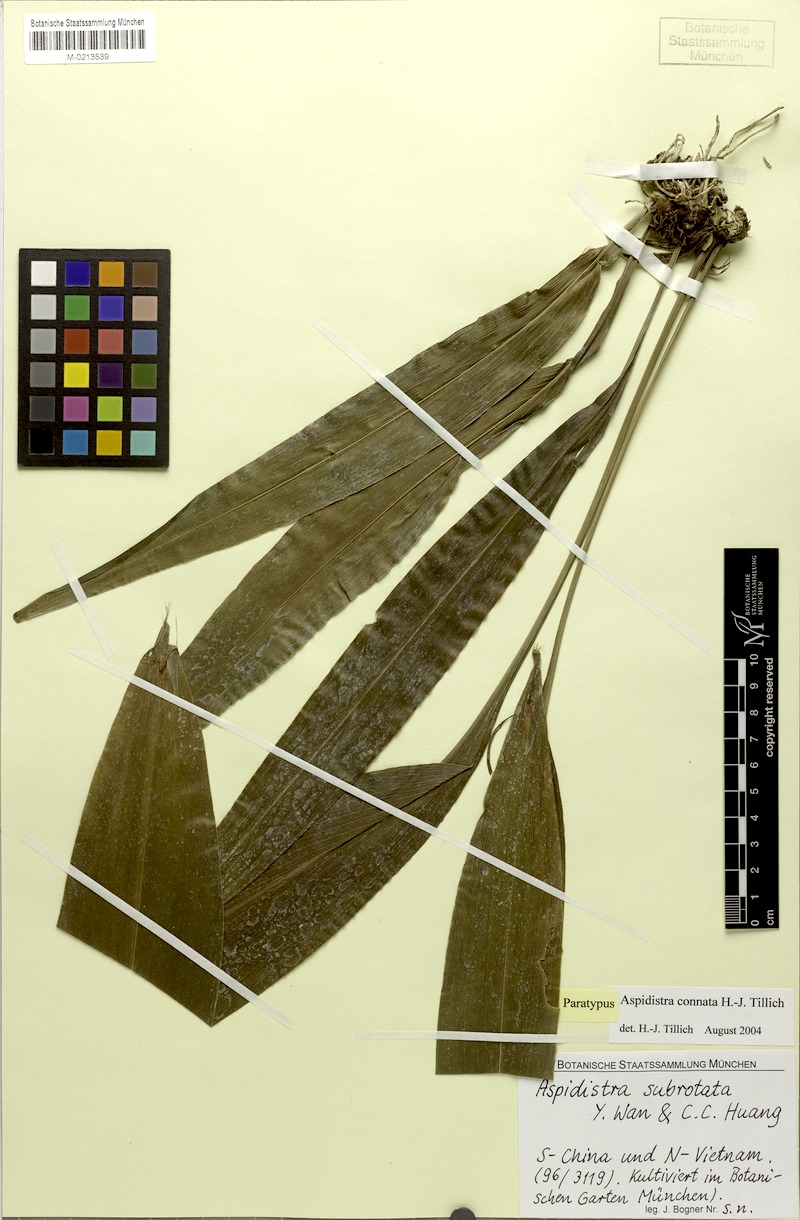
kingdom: Plantae
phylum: Tracheophyta
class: Liliopsida
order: Asparagales
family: Asparagaceae
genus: Aspidistra
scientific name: Aspidistra connata
